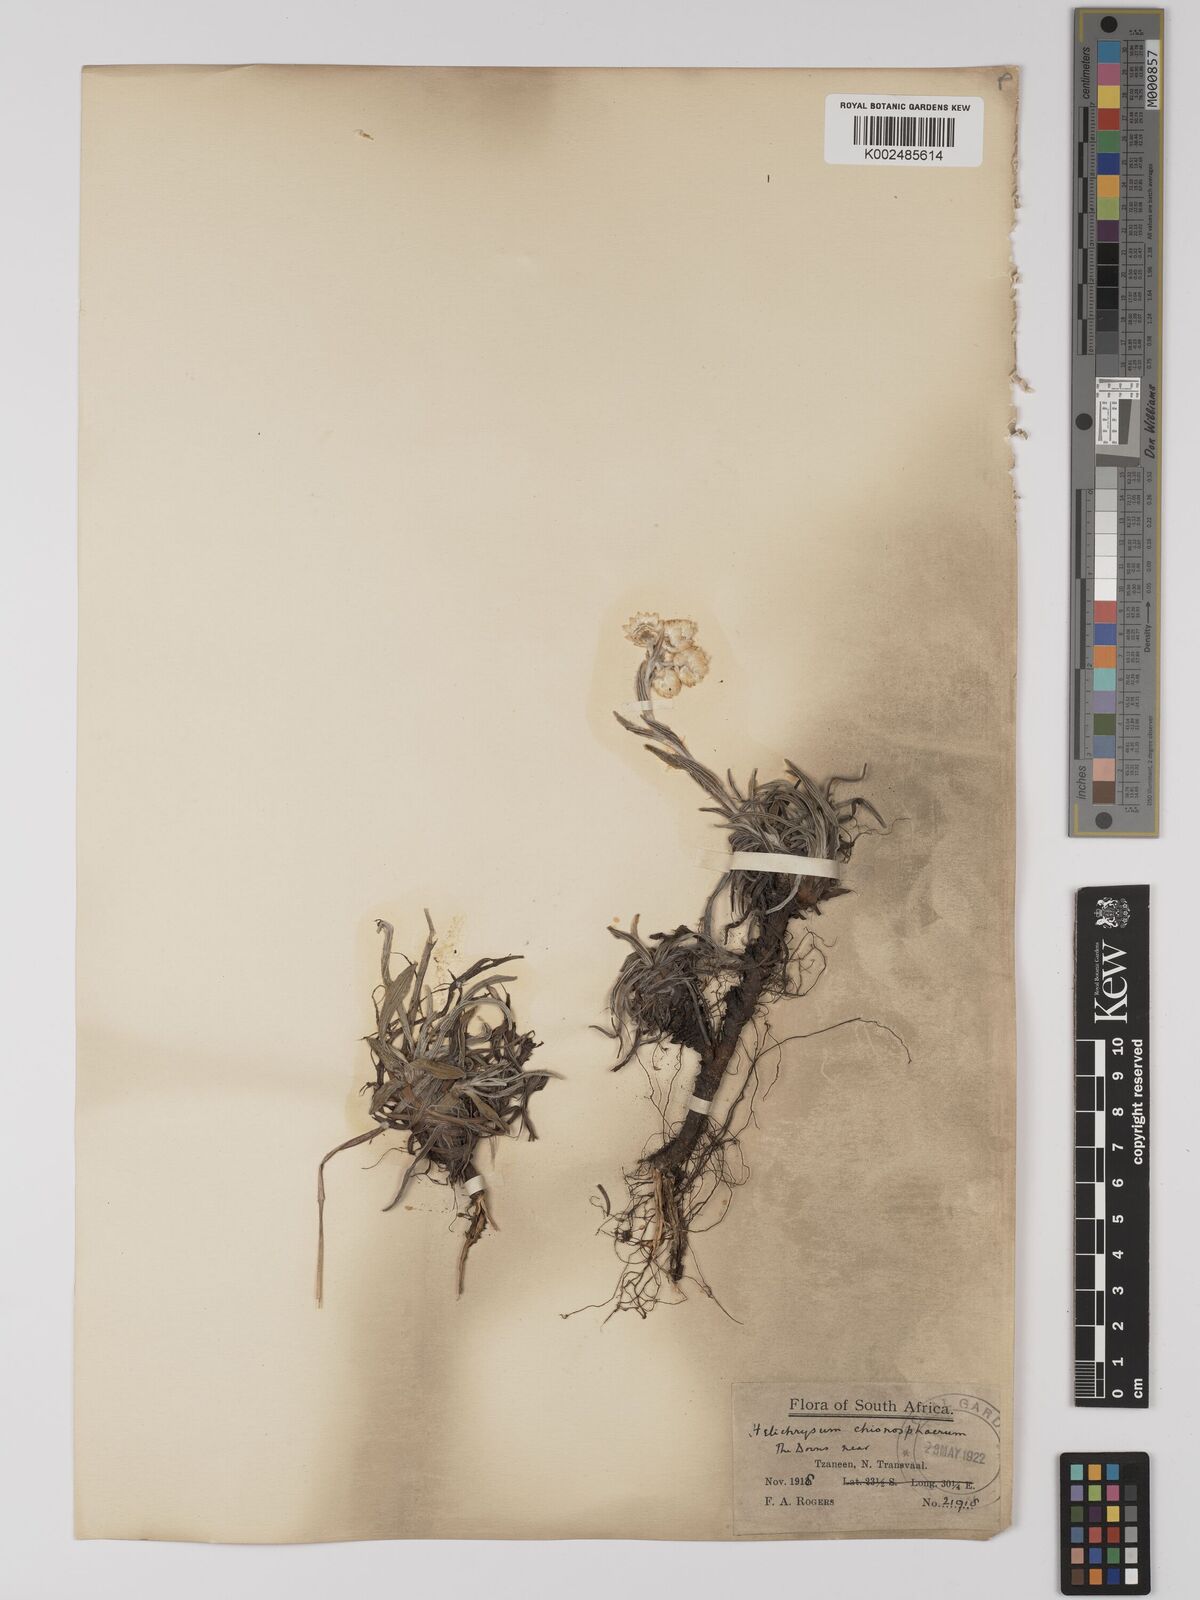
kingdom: Plantae
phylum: Tracheophyta
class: Magnoliopsida
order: Asterales
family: Asteraceae
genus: Helichrysum
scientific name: Helichrysum chionosphaerum
